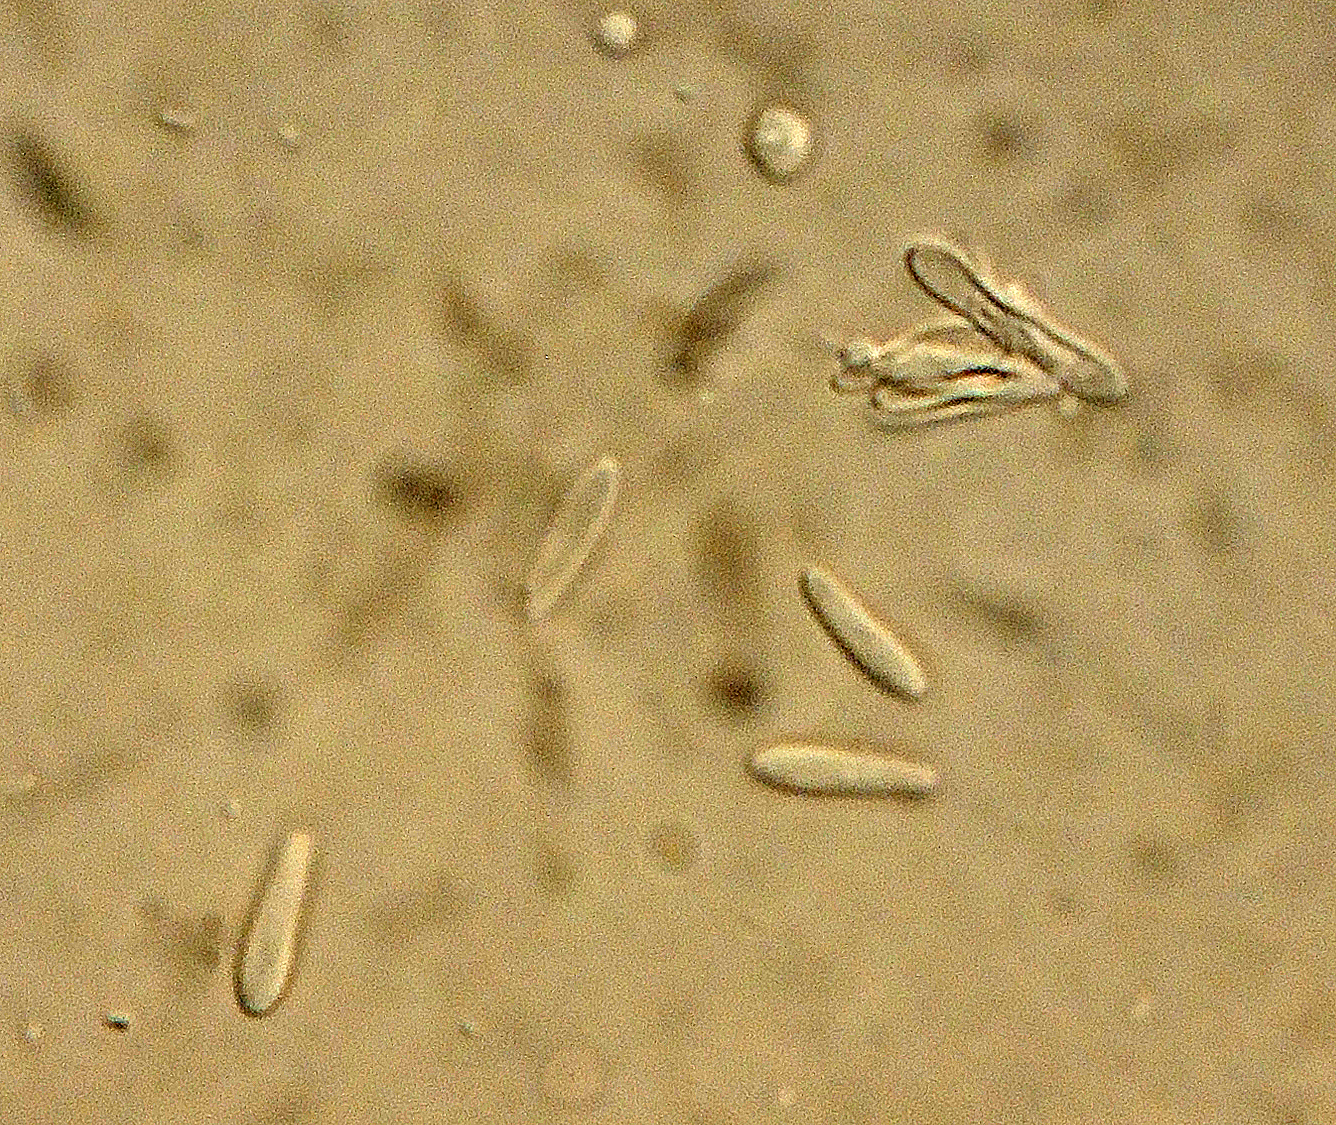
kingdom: Fungi
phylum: Ascomycota
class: Sordariomycetes
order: Hypocreales
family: Cordycipitaceae
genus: Akanthomyces
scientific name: Akanthomyces aranearum
